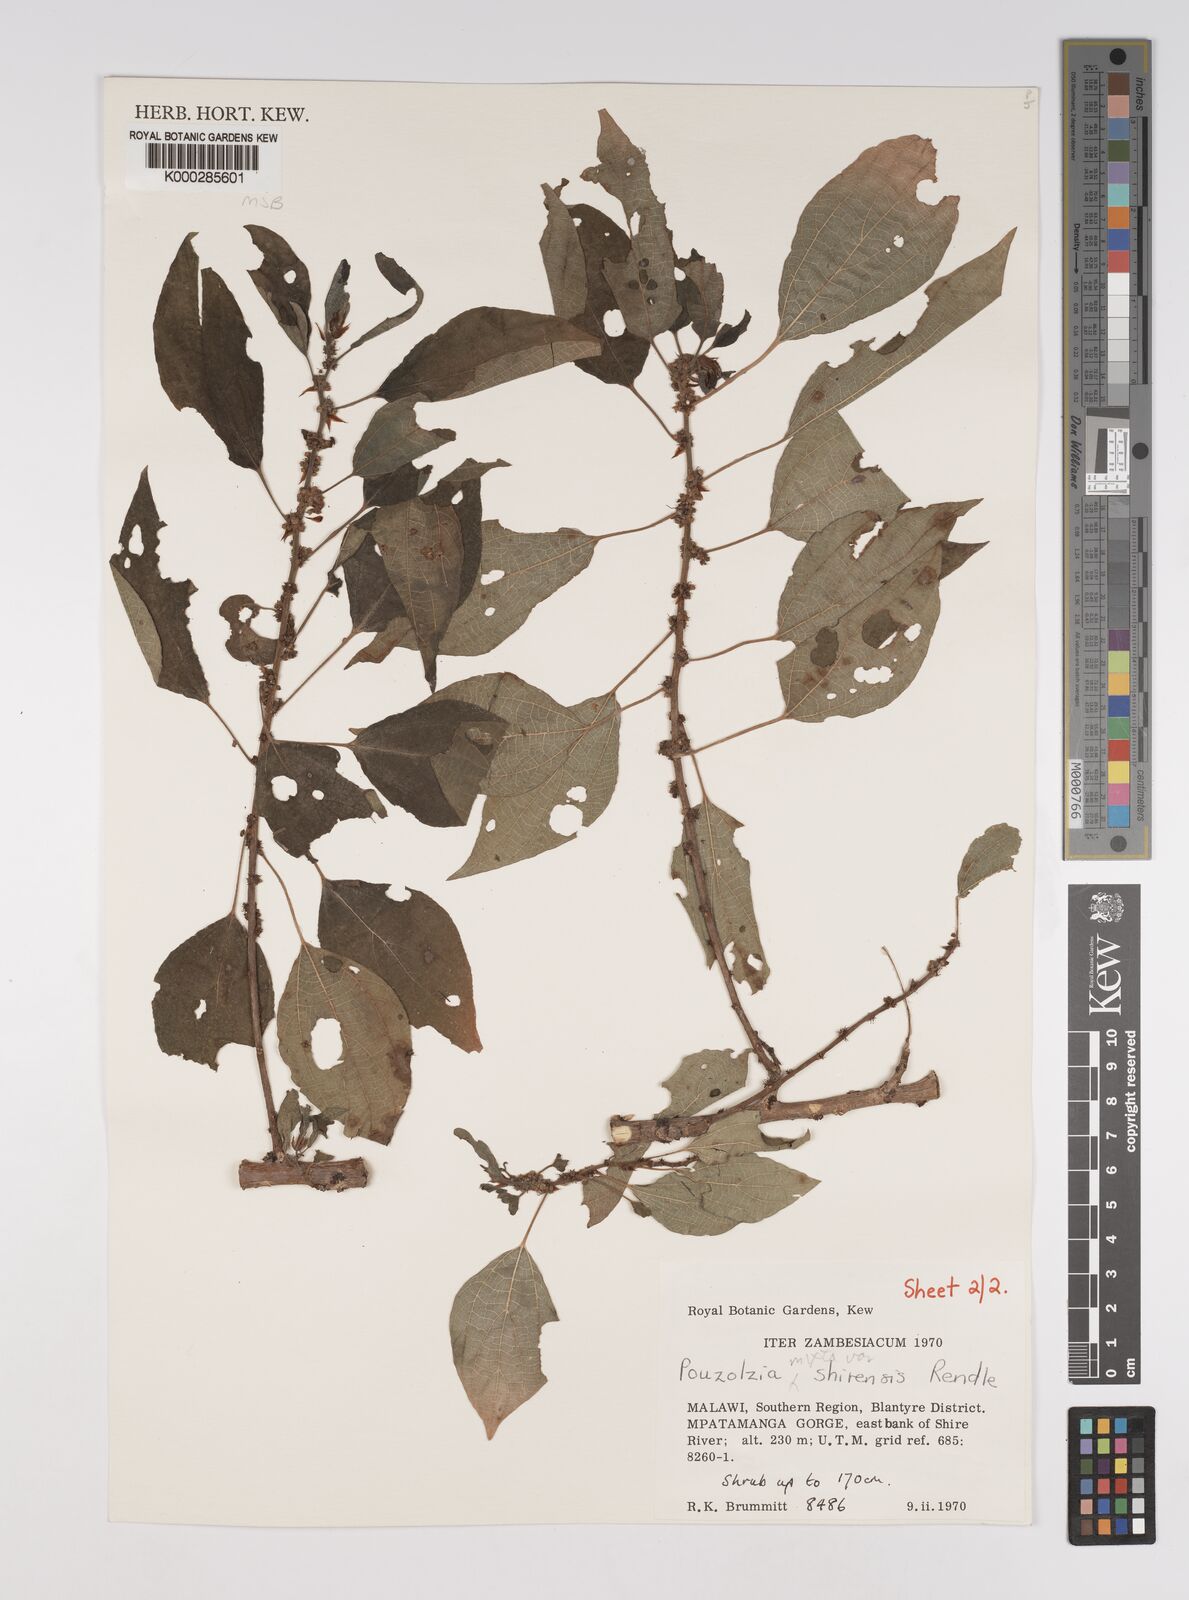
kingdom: Plantae
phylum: Tracheophyta
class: Magnoliopsida
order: Rosales
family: Urticaceae
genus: Pouzolzia
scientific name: Pouzolzia mixta
